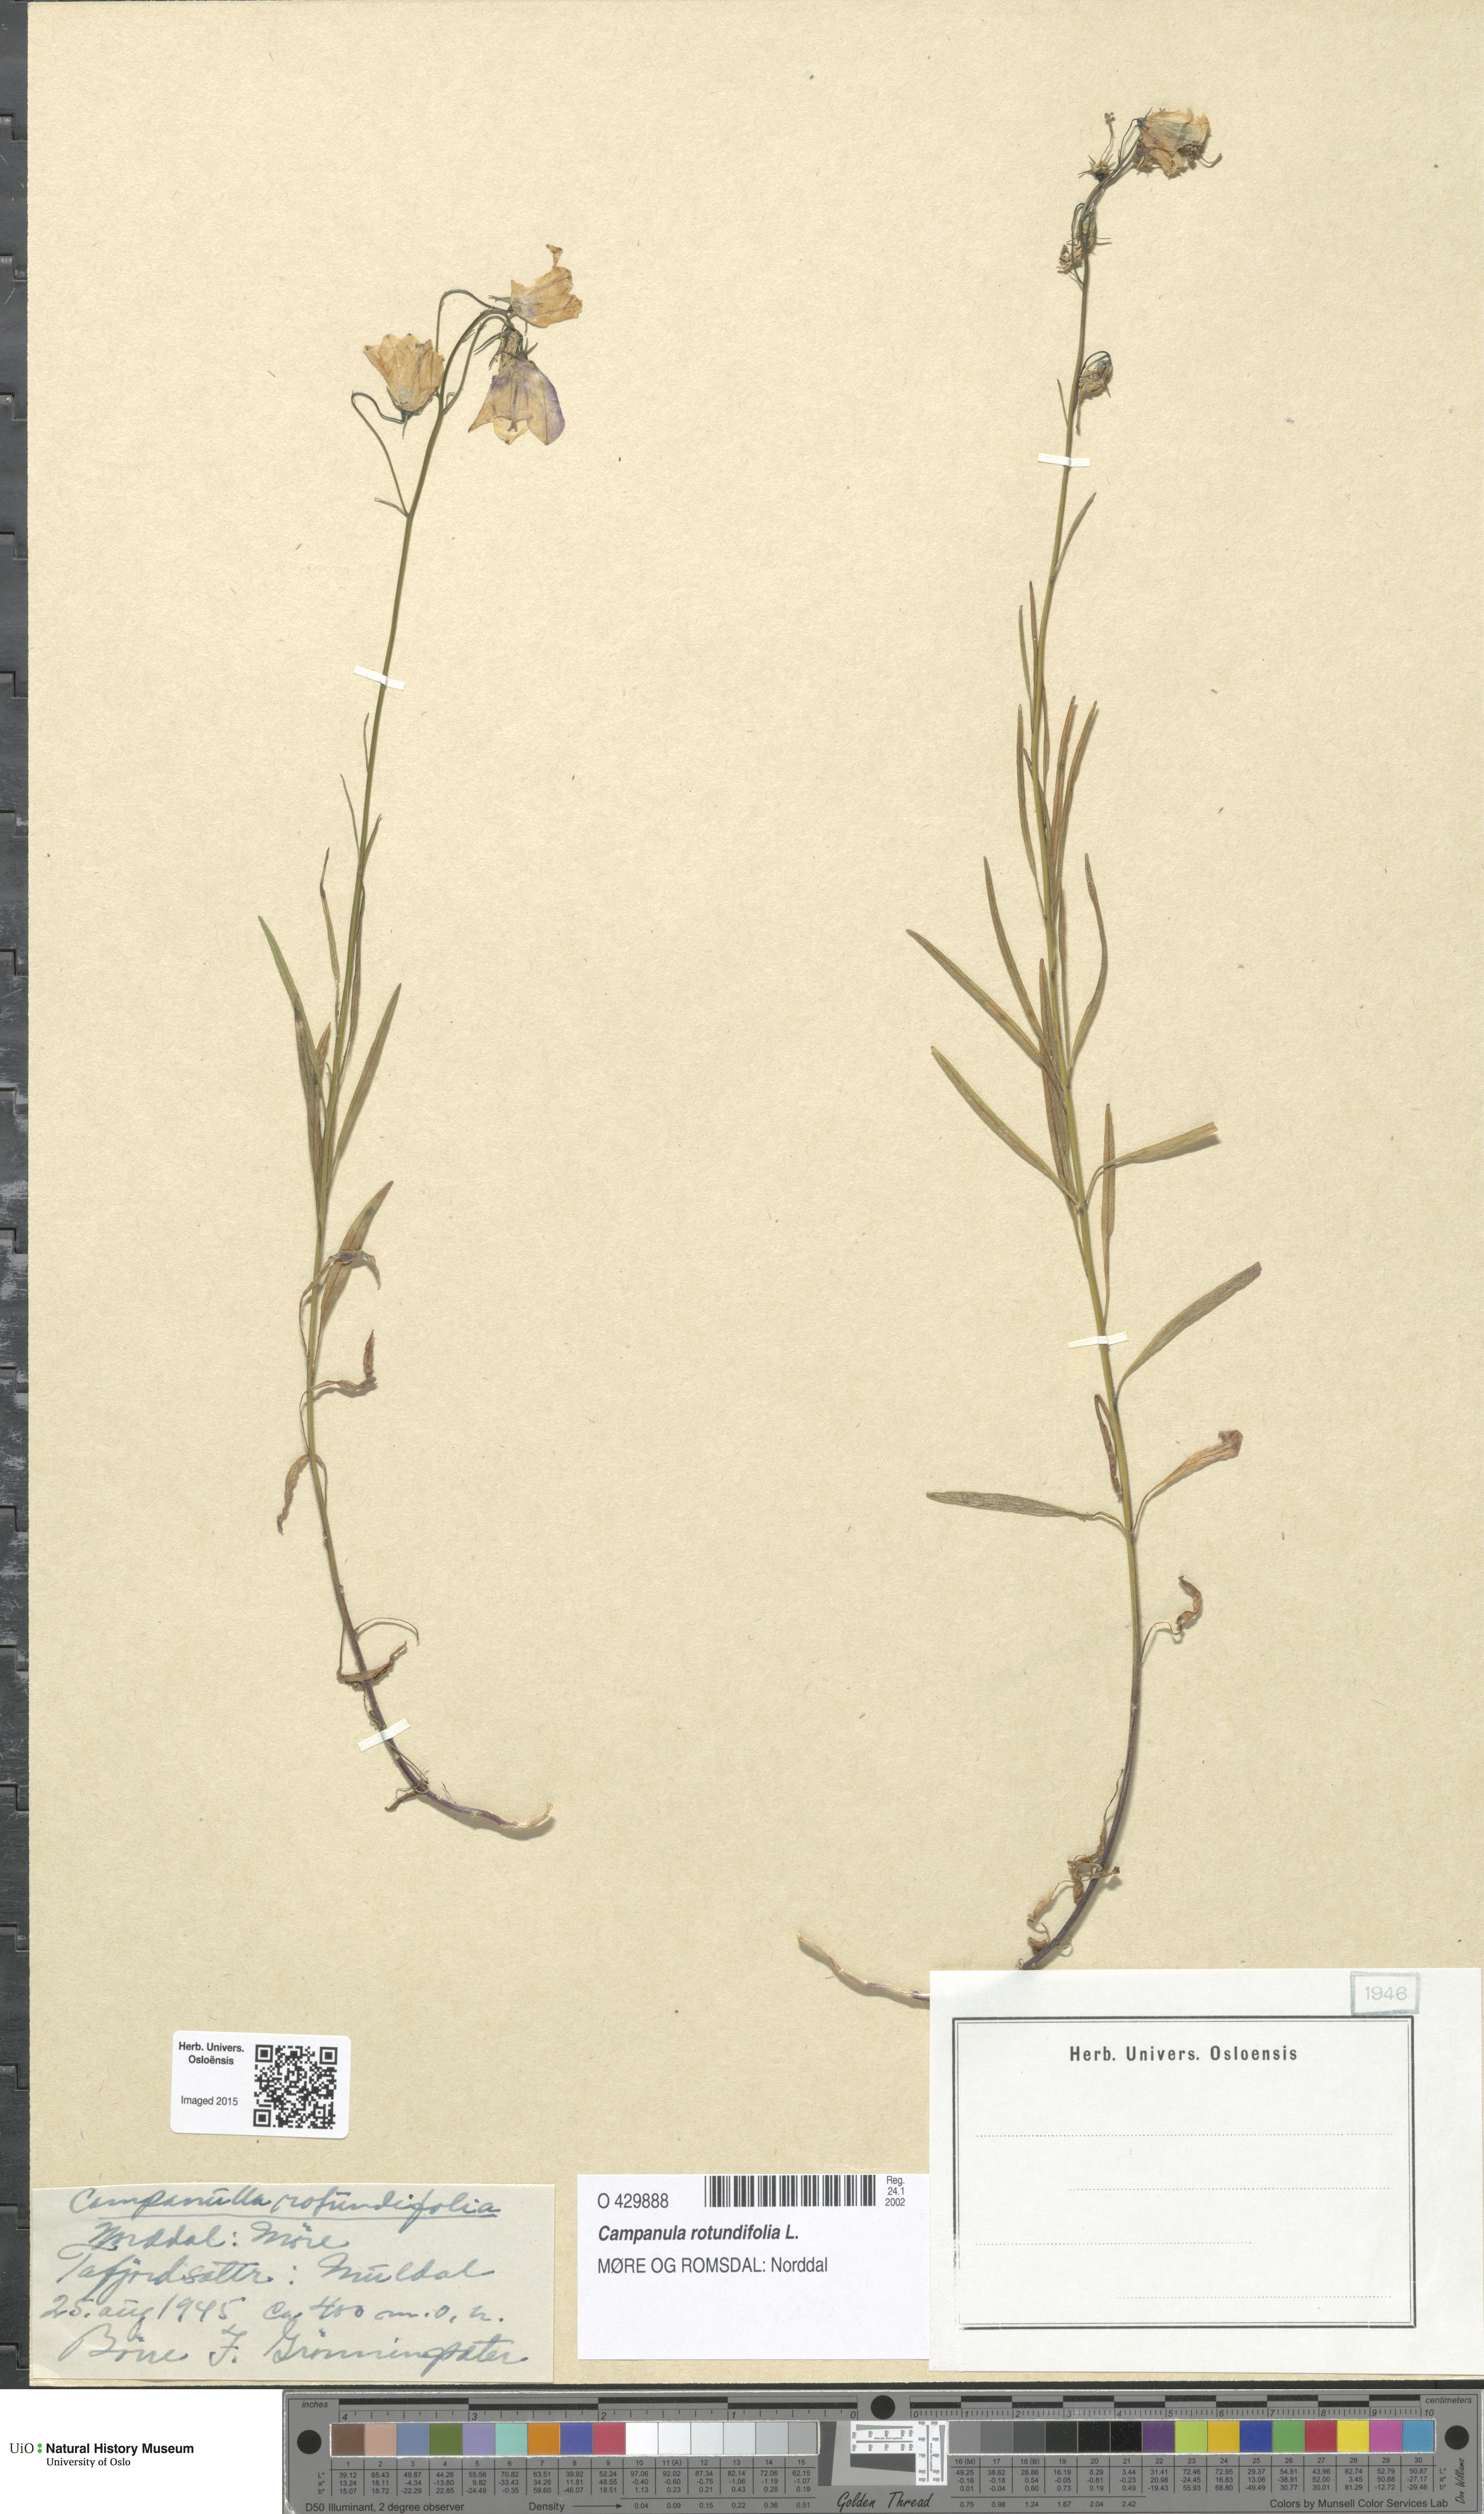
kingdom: Plantae
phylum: Tracheophyta
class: Magnoliopsida
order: Asterales
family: Campanulaceae
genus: Campanula
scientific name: Campanula rotundifolia
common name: Harebell
